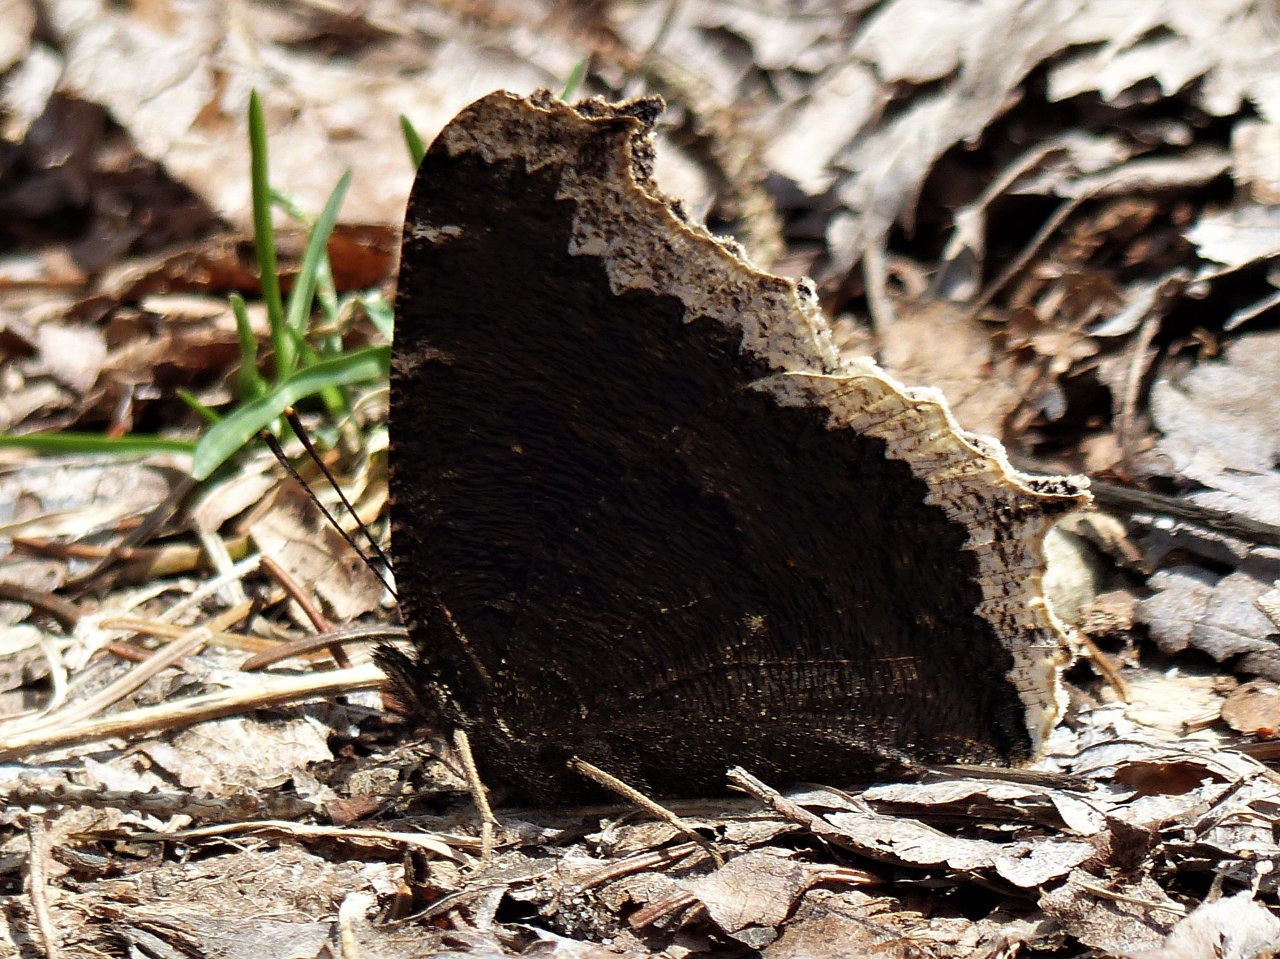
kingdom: Animalia
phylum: Arthropoda
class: Insecta
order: Lepidoptera
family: Nymphalidae
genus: Nymphalis
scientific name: Nymphalis antiopa
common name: Mourning Cloak
